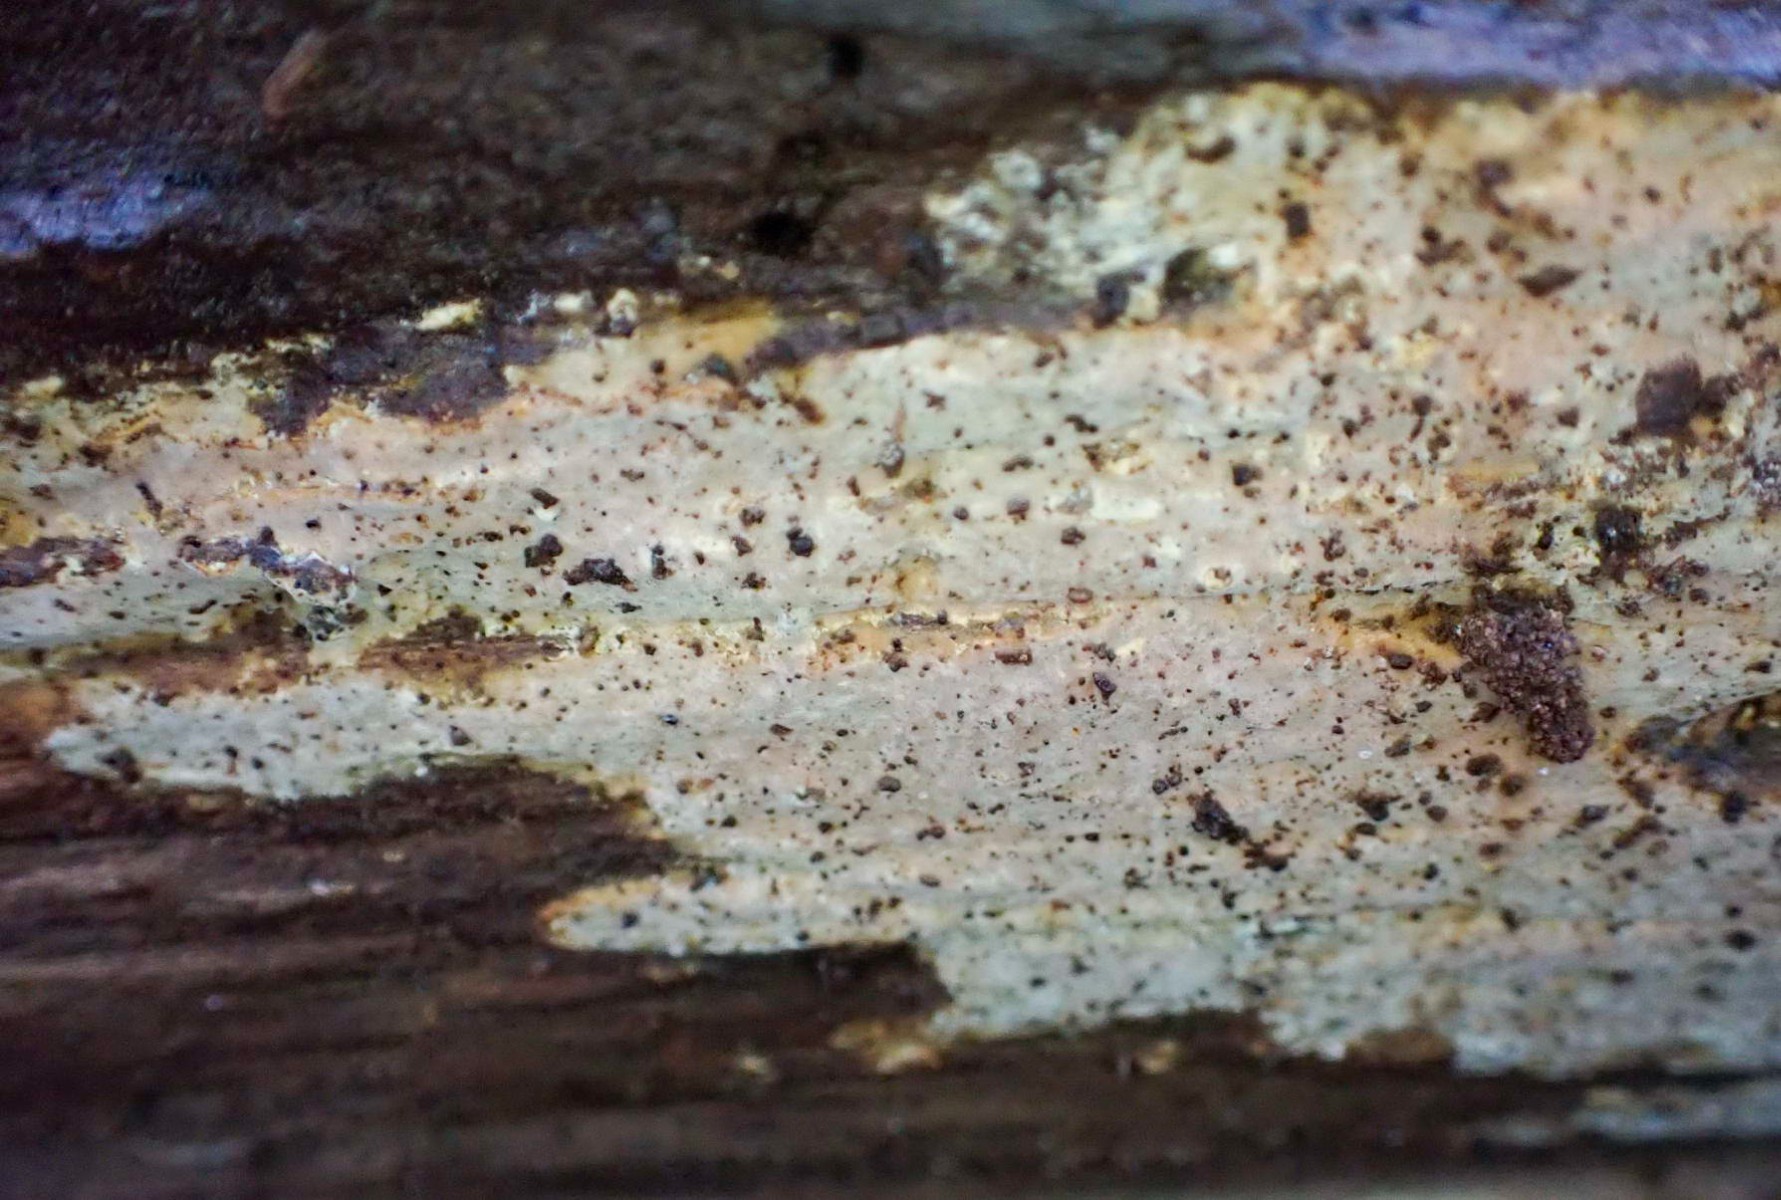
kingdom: Fungi
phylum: Basidiomycota
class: Agaricomycetes
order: Russulales
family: Peniophoraceae
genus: Scytinostroma
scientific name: Scytinostroma hemidichophyticum
